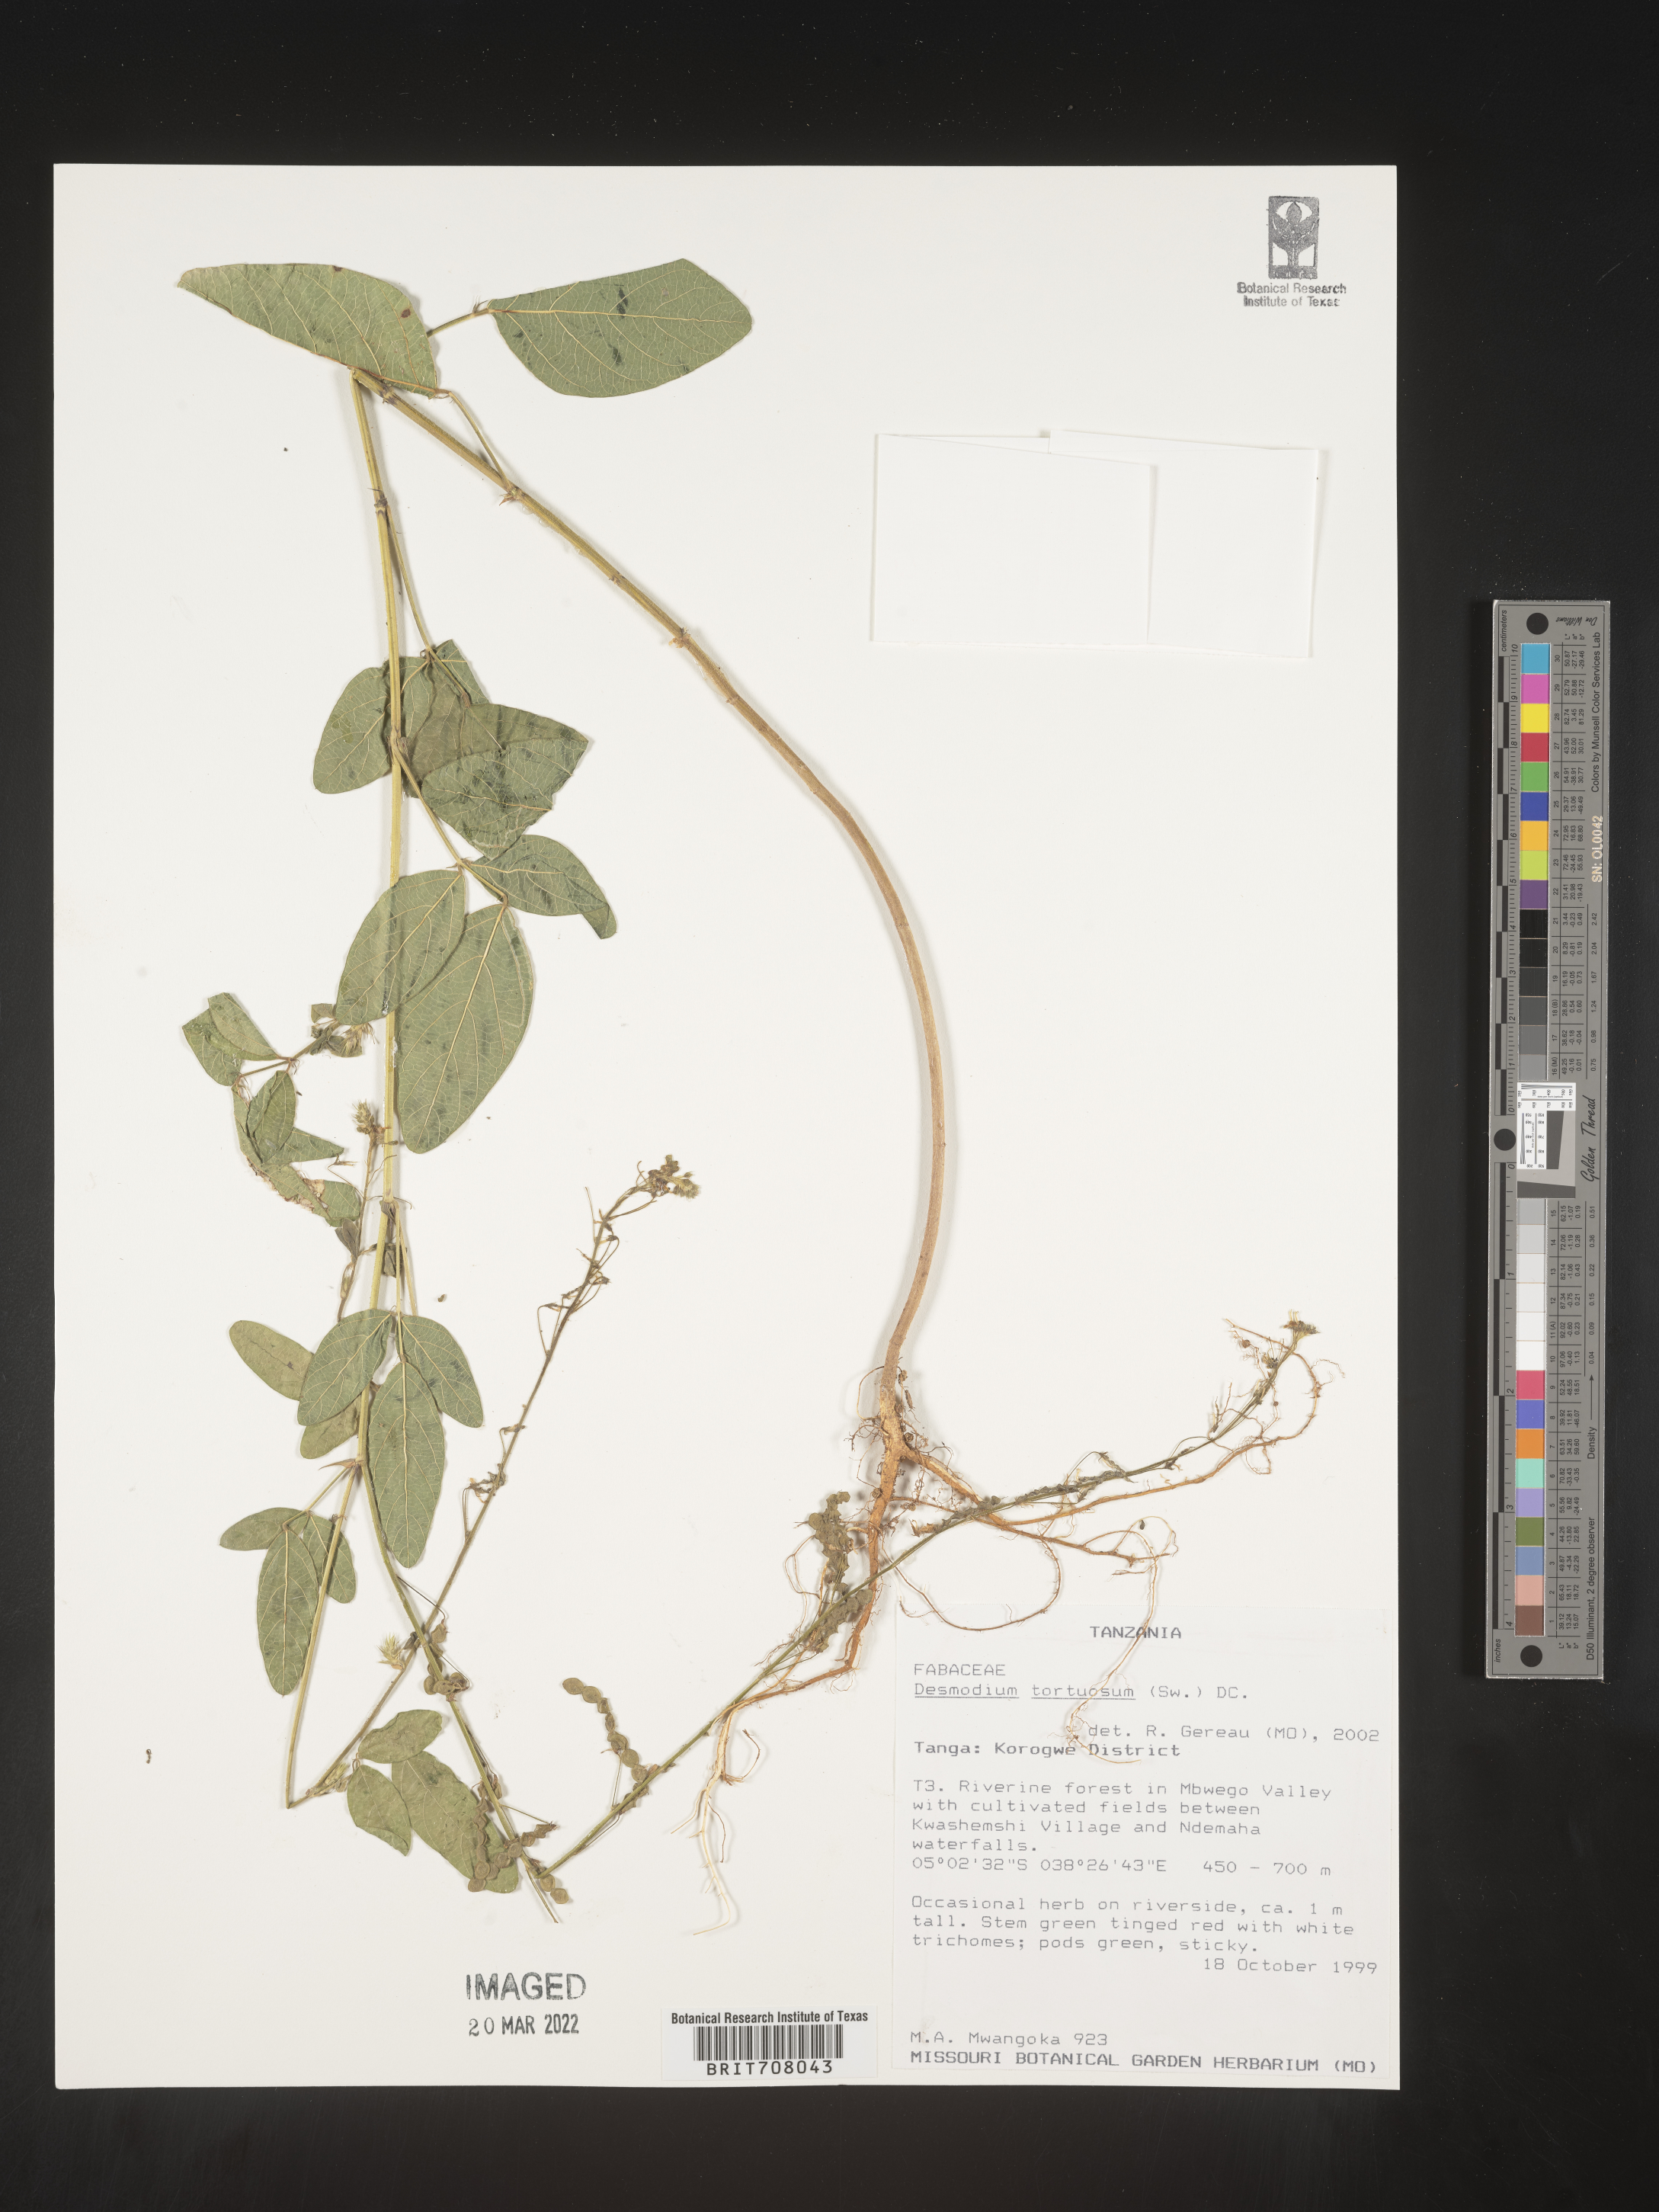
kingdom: Plantae
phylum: Tracheophyta
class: Magnoliopsida
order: Fabales
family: Fabaceae
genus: Desmodium
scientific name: Desmodium
